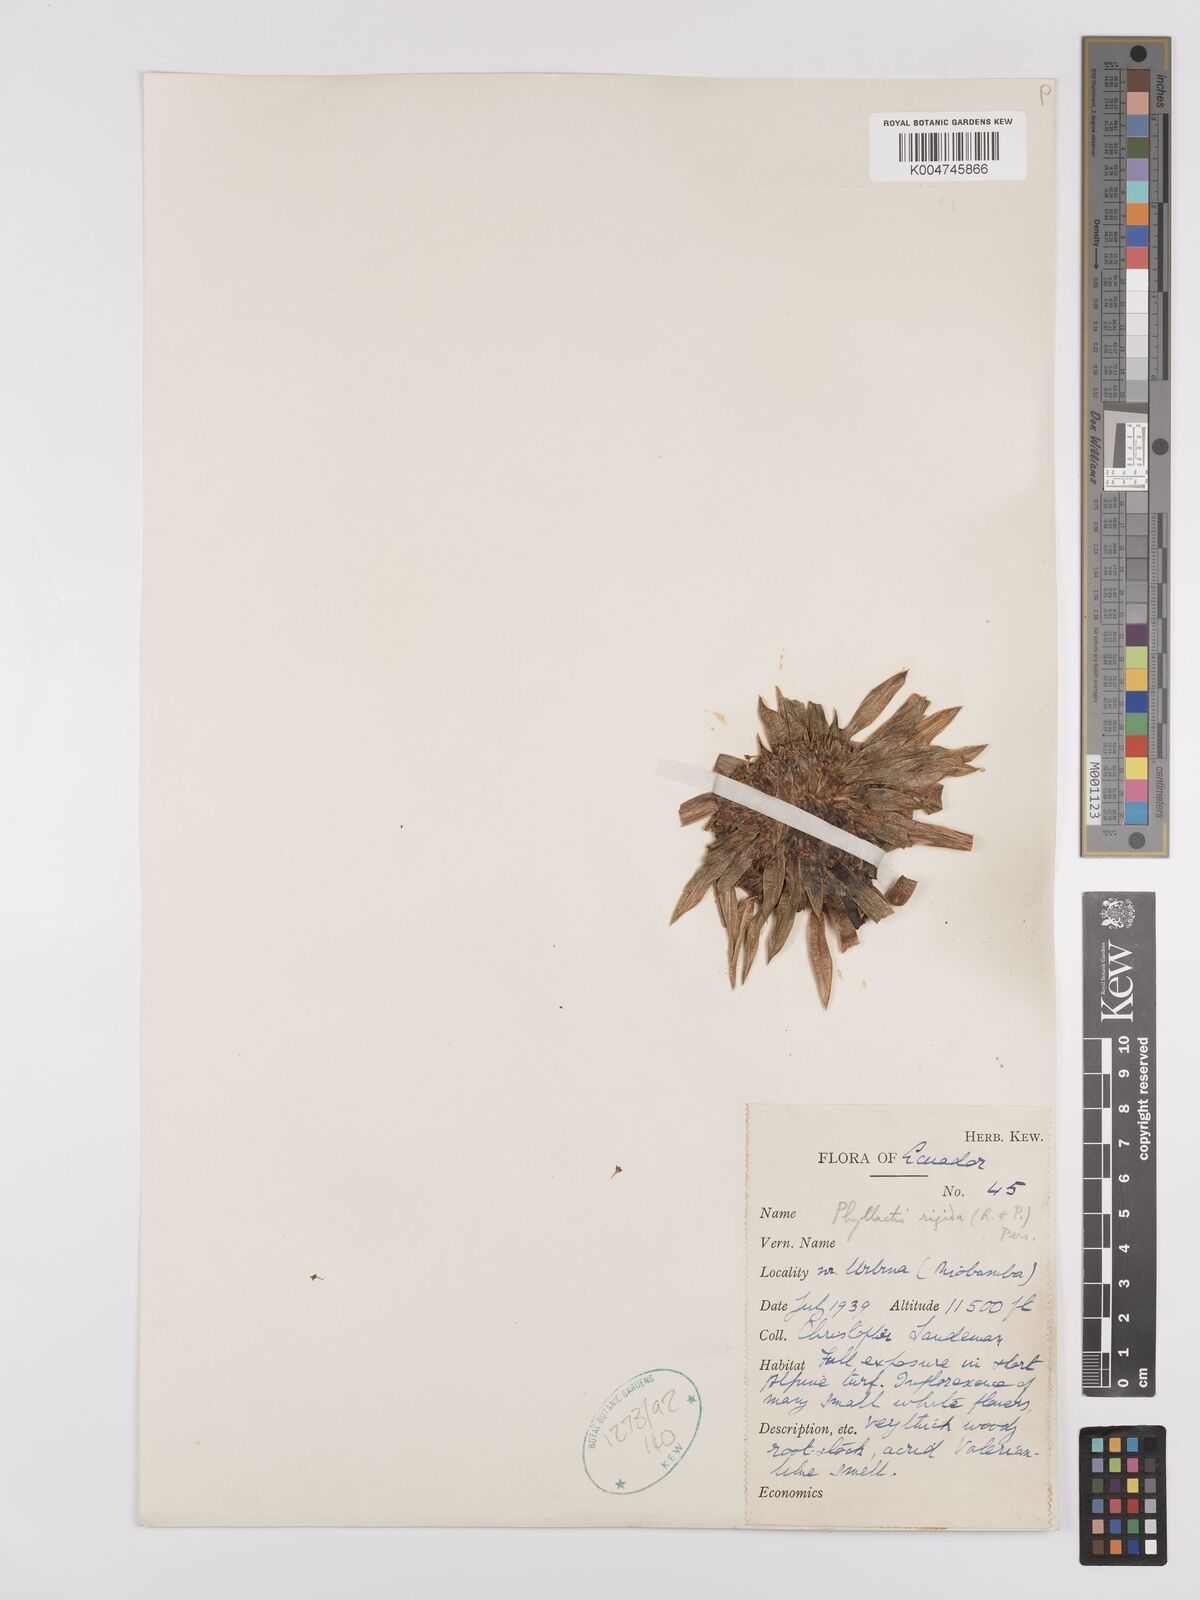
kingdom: Plantae
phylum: Tracheophyta
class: Magnoliopsida
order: Dipsacales
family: Caprifoliaceae
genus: Valeriana
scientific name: Valeriana rigida
